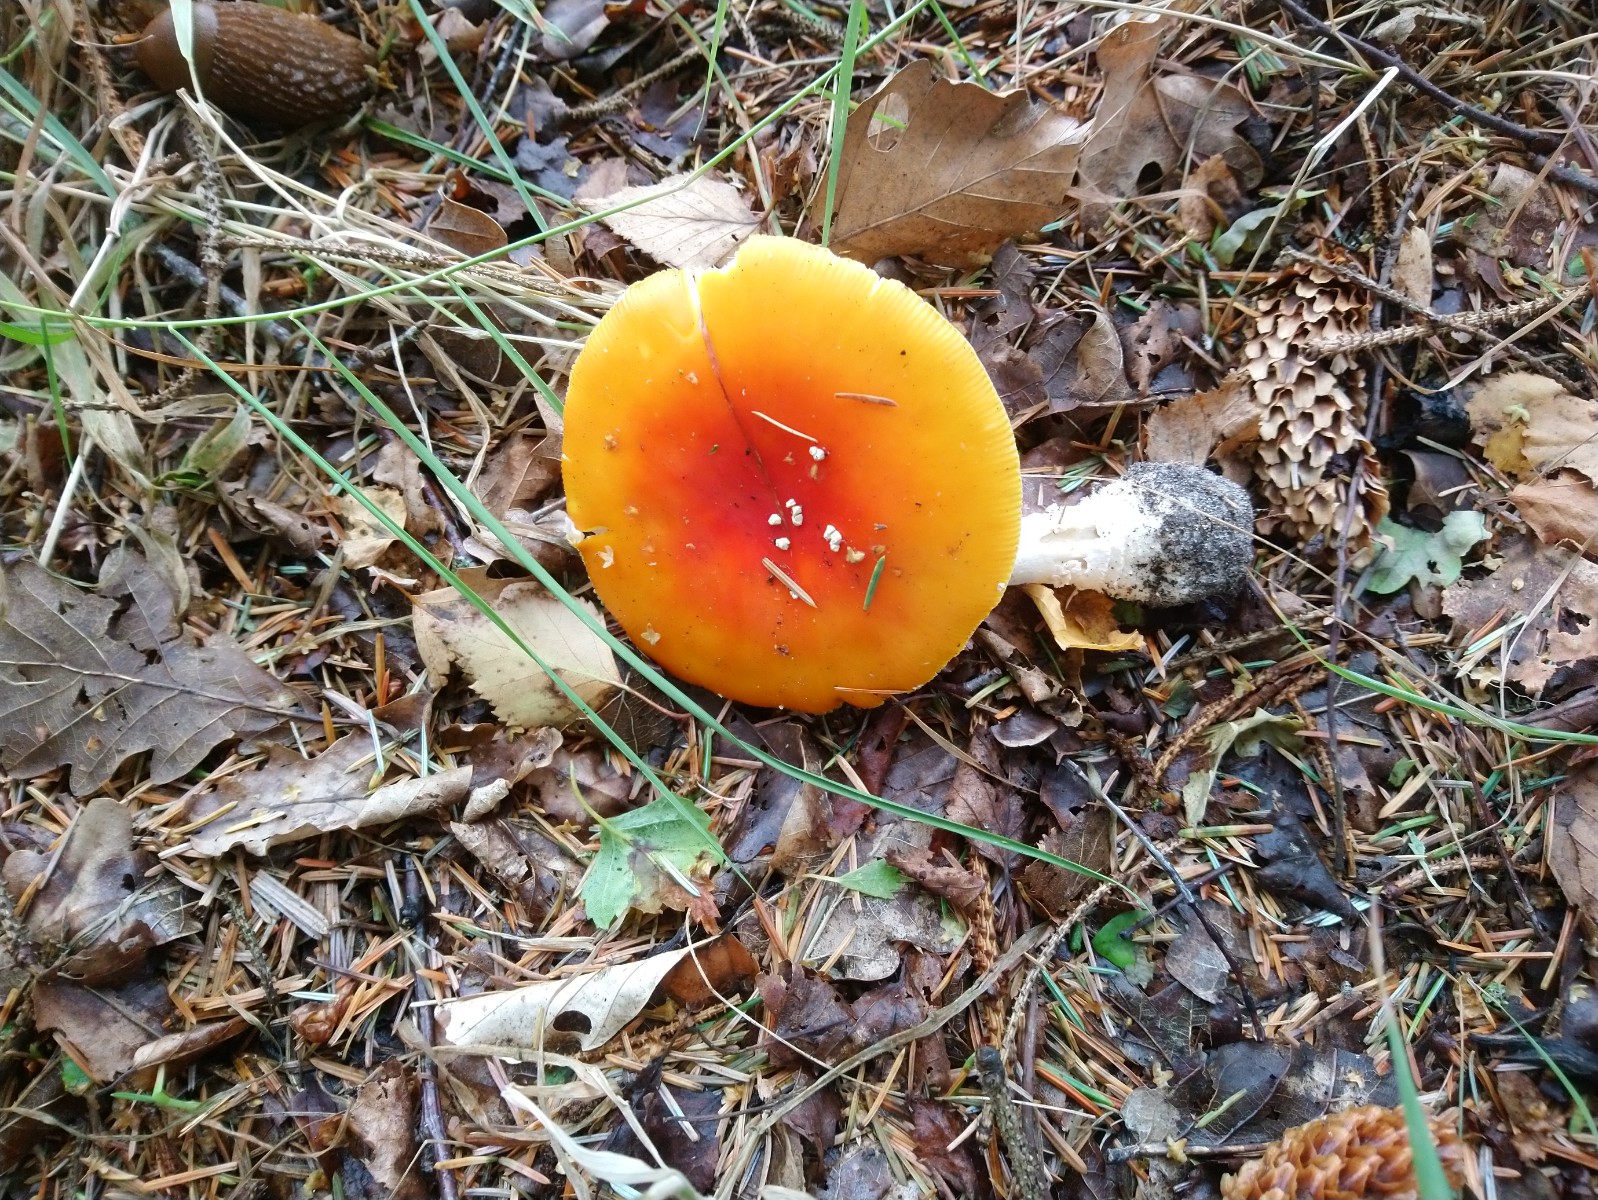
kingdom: Fungi
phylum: Basidiomycota
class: Agaricomycetes
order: Agaricales
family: Amanitaceae
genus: Amanita
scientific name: Amanita muscaria
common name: rød fluesvamp
